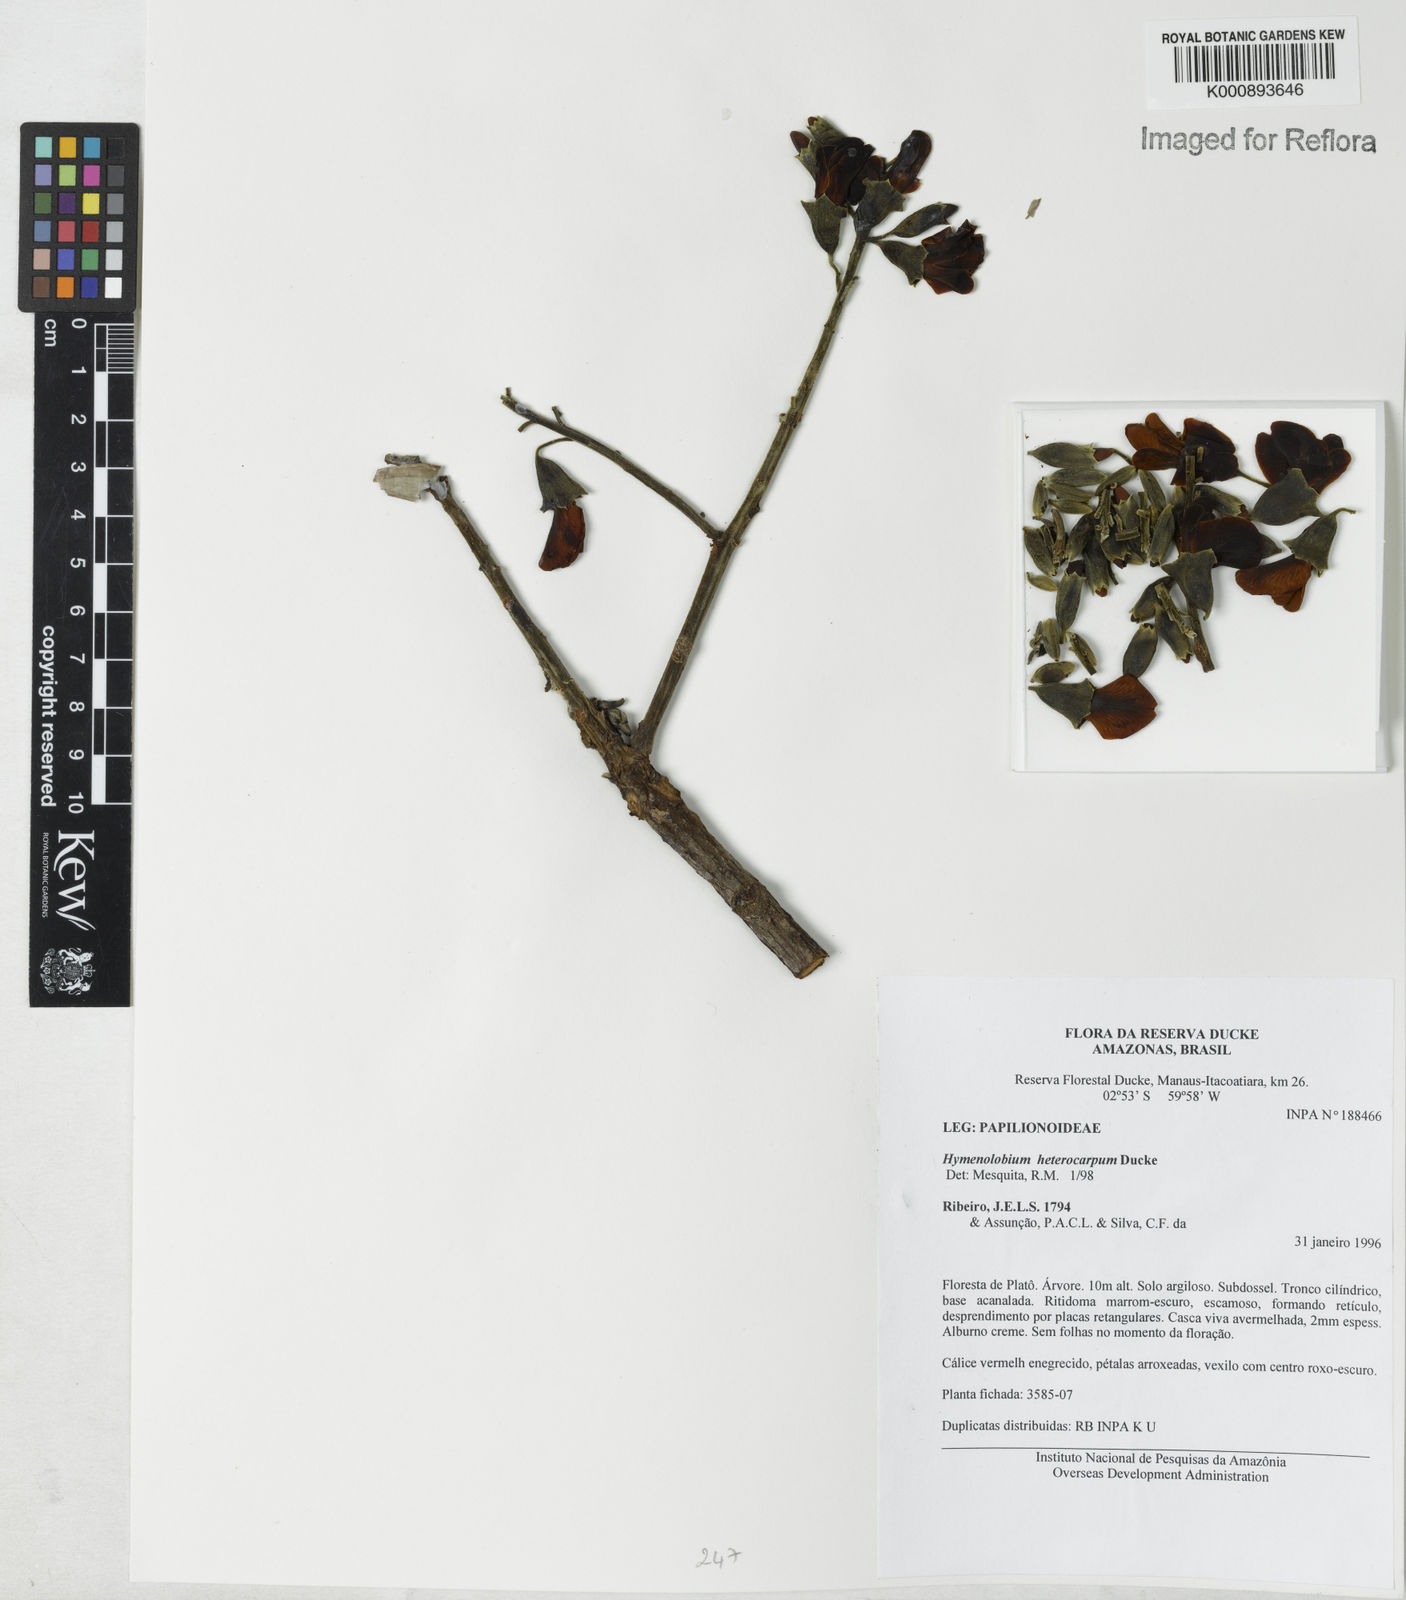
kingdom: Plantae
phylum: Tracheophyta
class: Magnoliopsida
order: Fabales
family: Fabaceae
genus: Hymenolobium
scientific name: Hymenolobium heterocarpum
